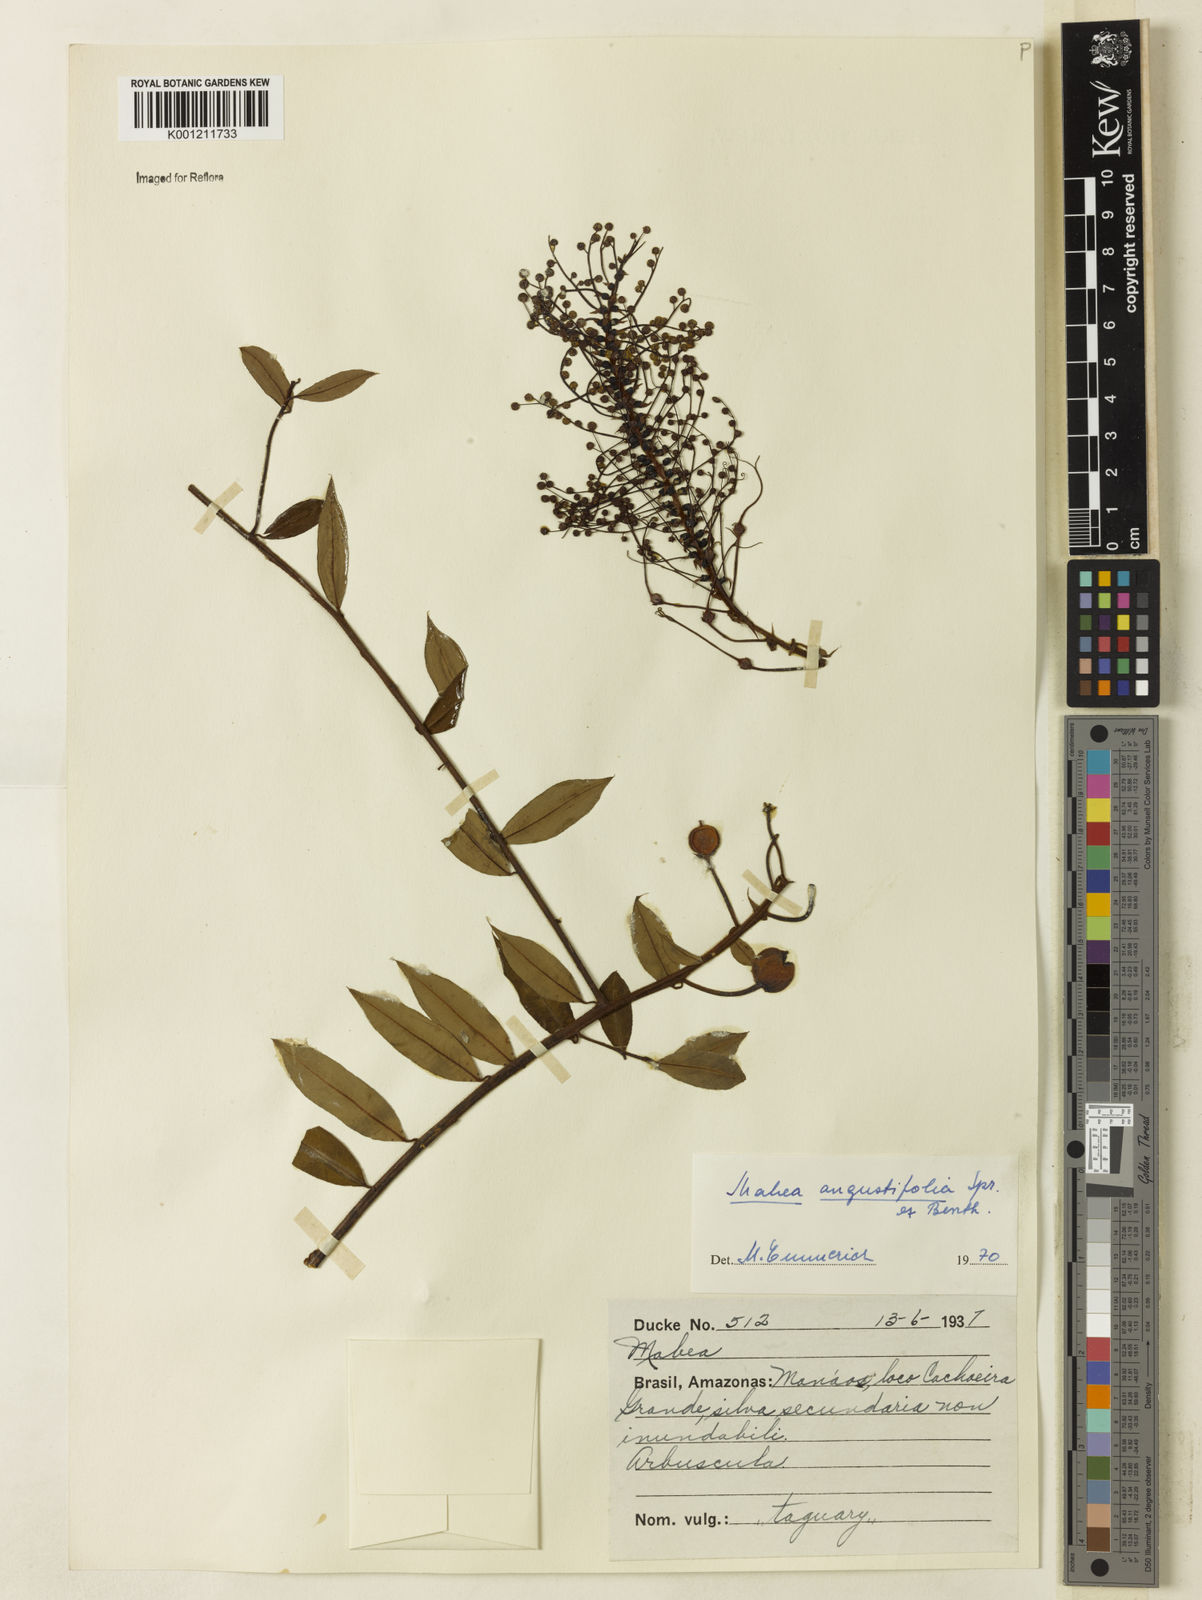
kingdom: Plantae
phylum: Tracheophyta
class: Magnoliopsida
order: Malpighiales
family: Euphorbiaceae
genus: Mabea
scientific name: Mabea angustifolia
